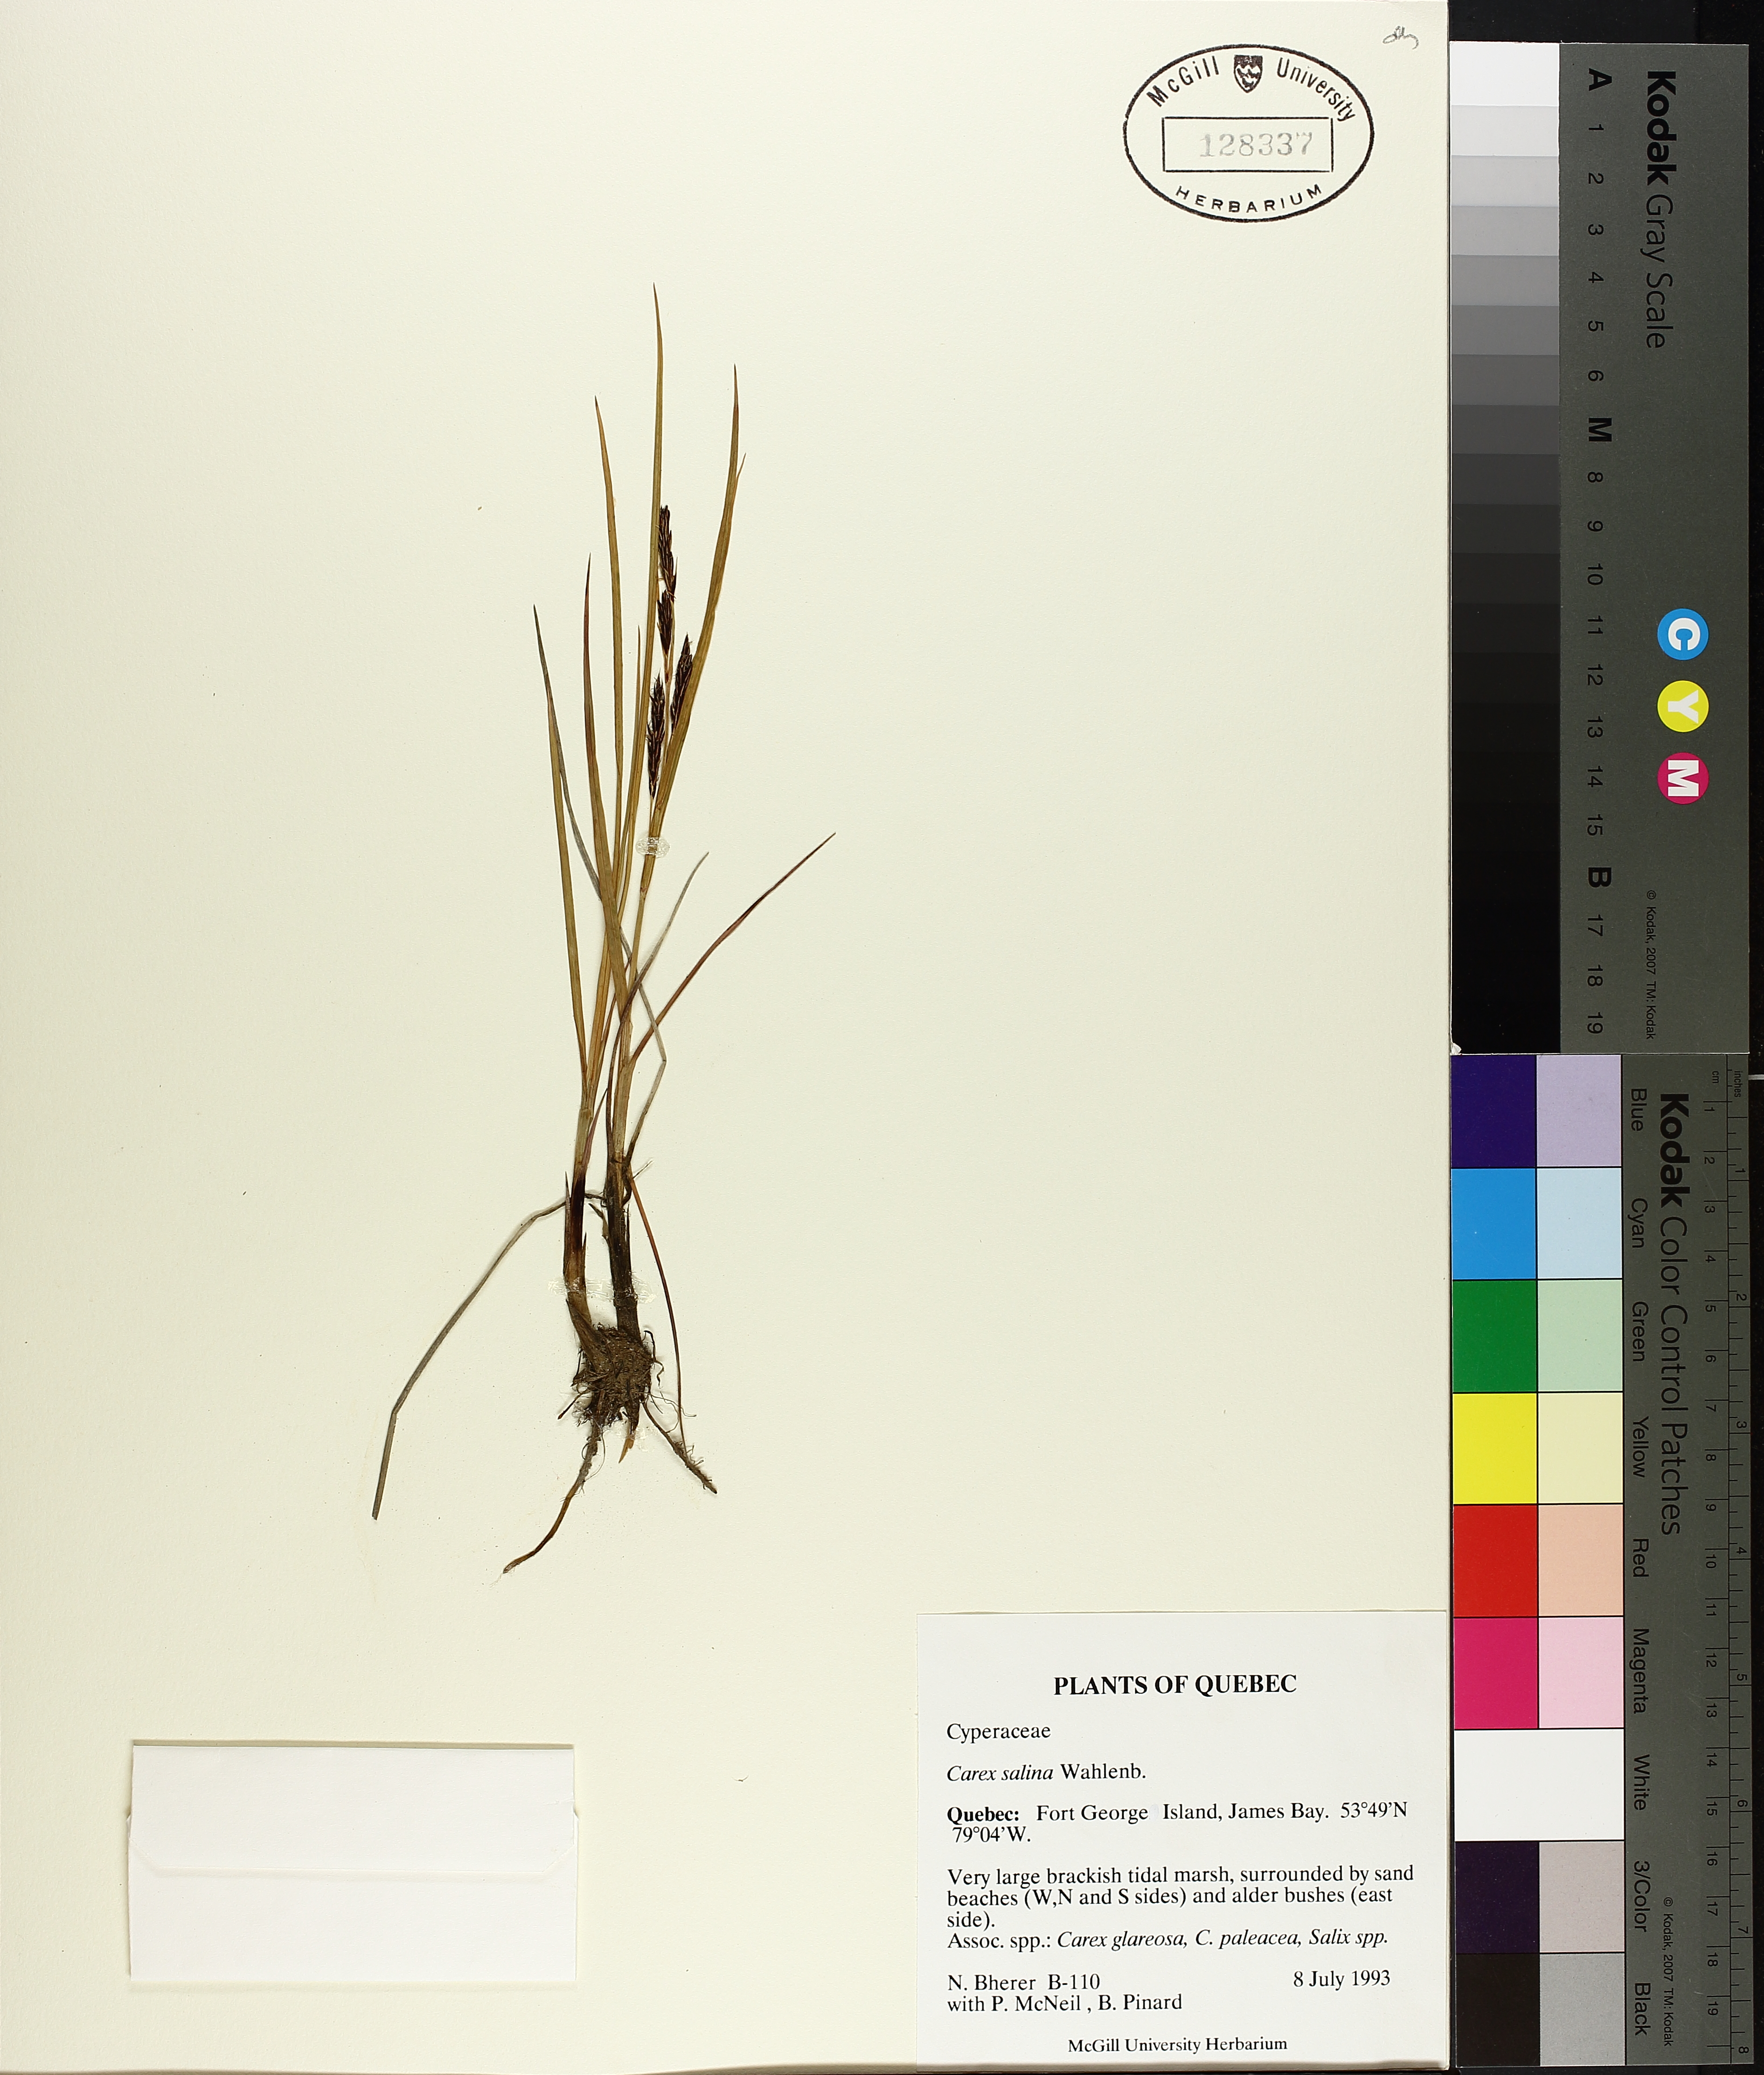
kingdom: Plantae
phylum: Tracheophyta
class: Liliopsida
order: Poales
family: Cyperaceae
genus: Carex
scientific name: Carex salina
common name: Saltmarsh sedge
